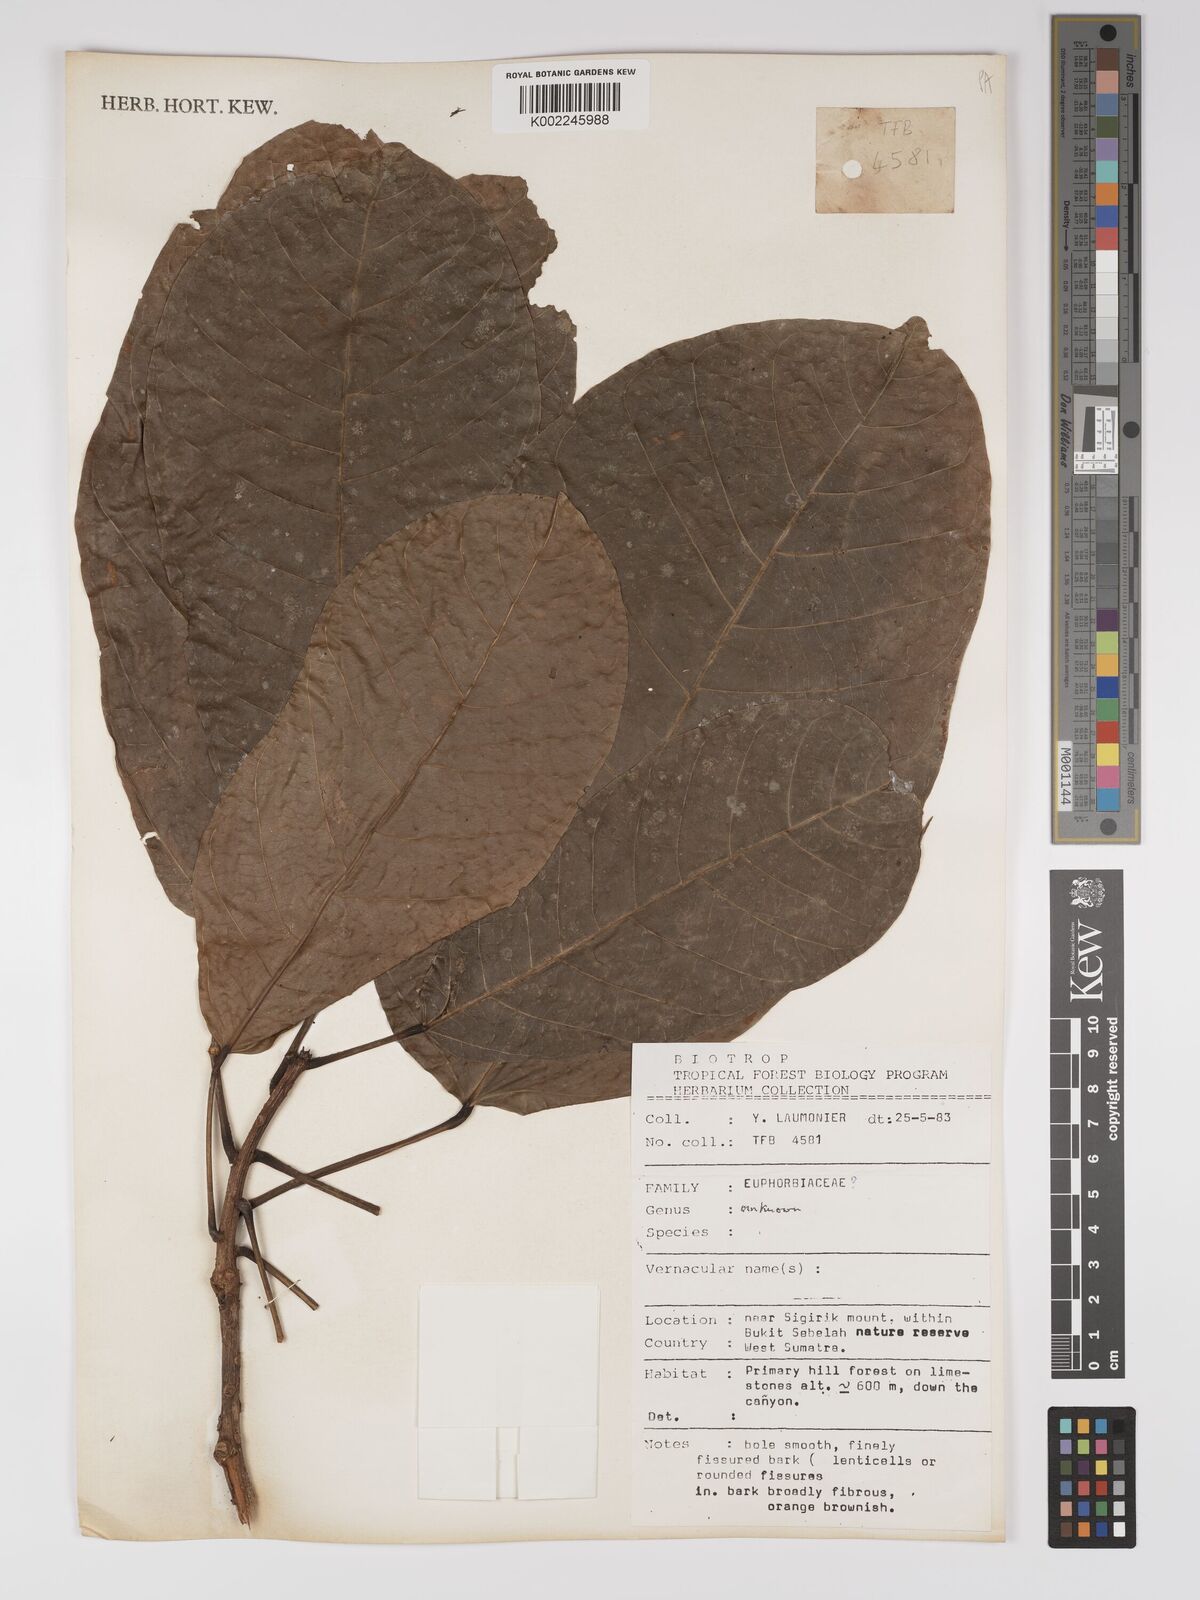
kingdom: Plantae
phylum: Tracheophyta
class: Magnoliopsida
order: Malpighiales
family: Euphorbiaceae
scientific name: Euphorbiaceae
